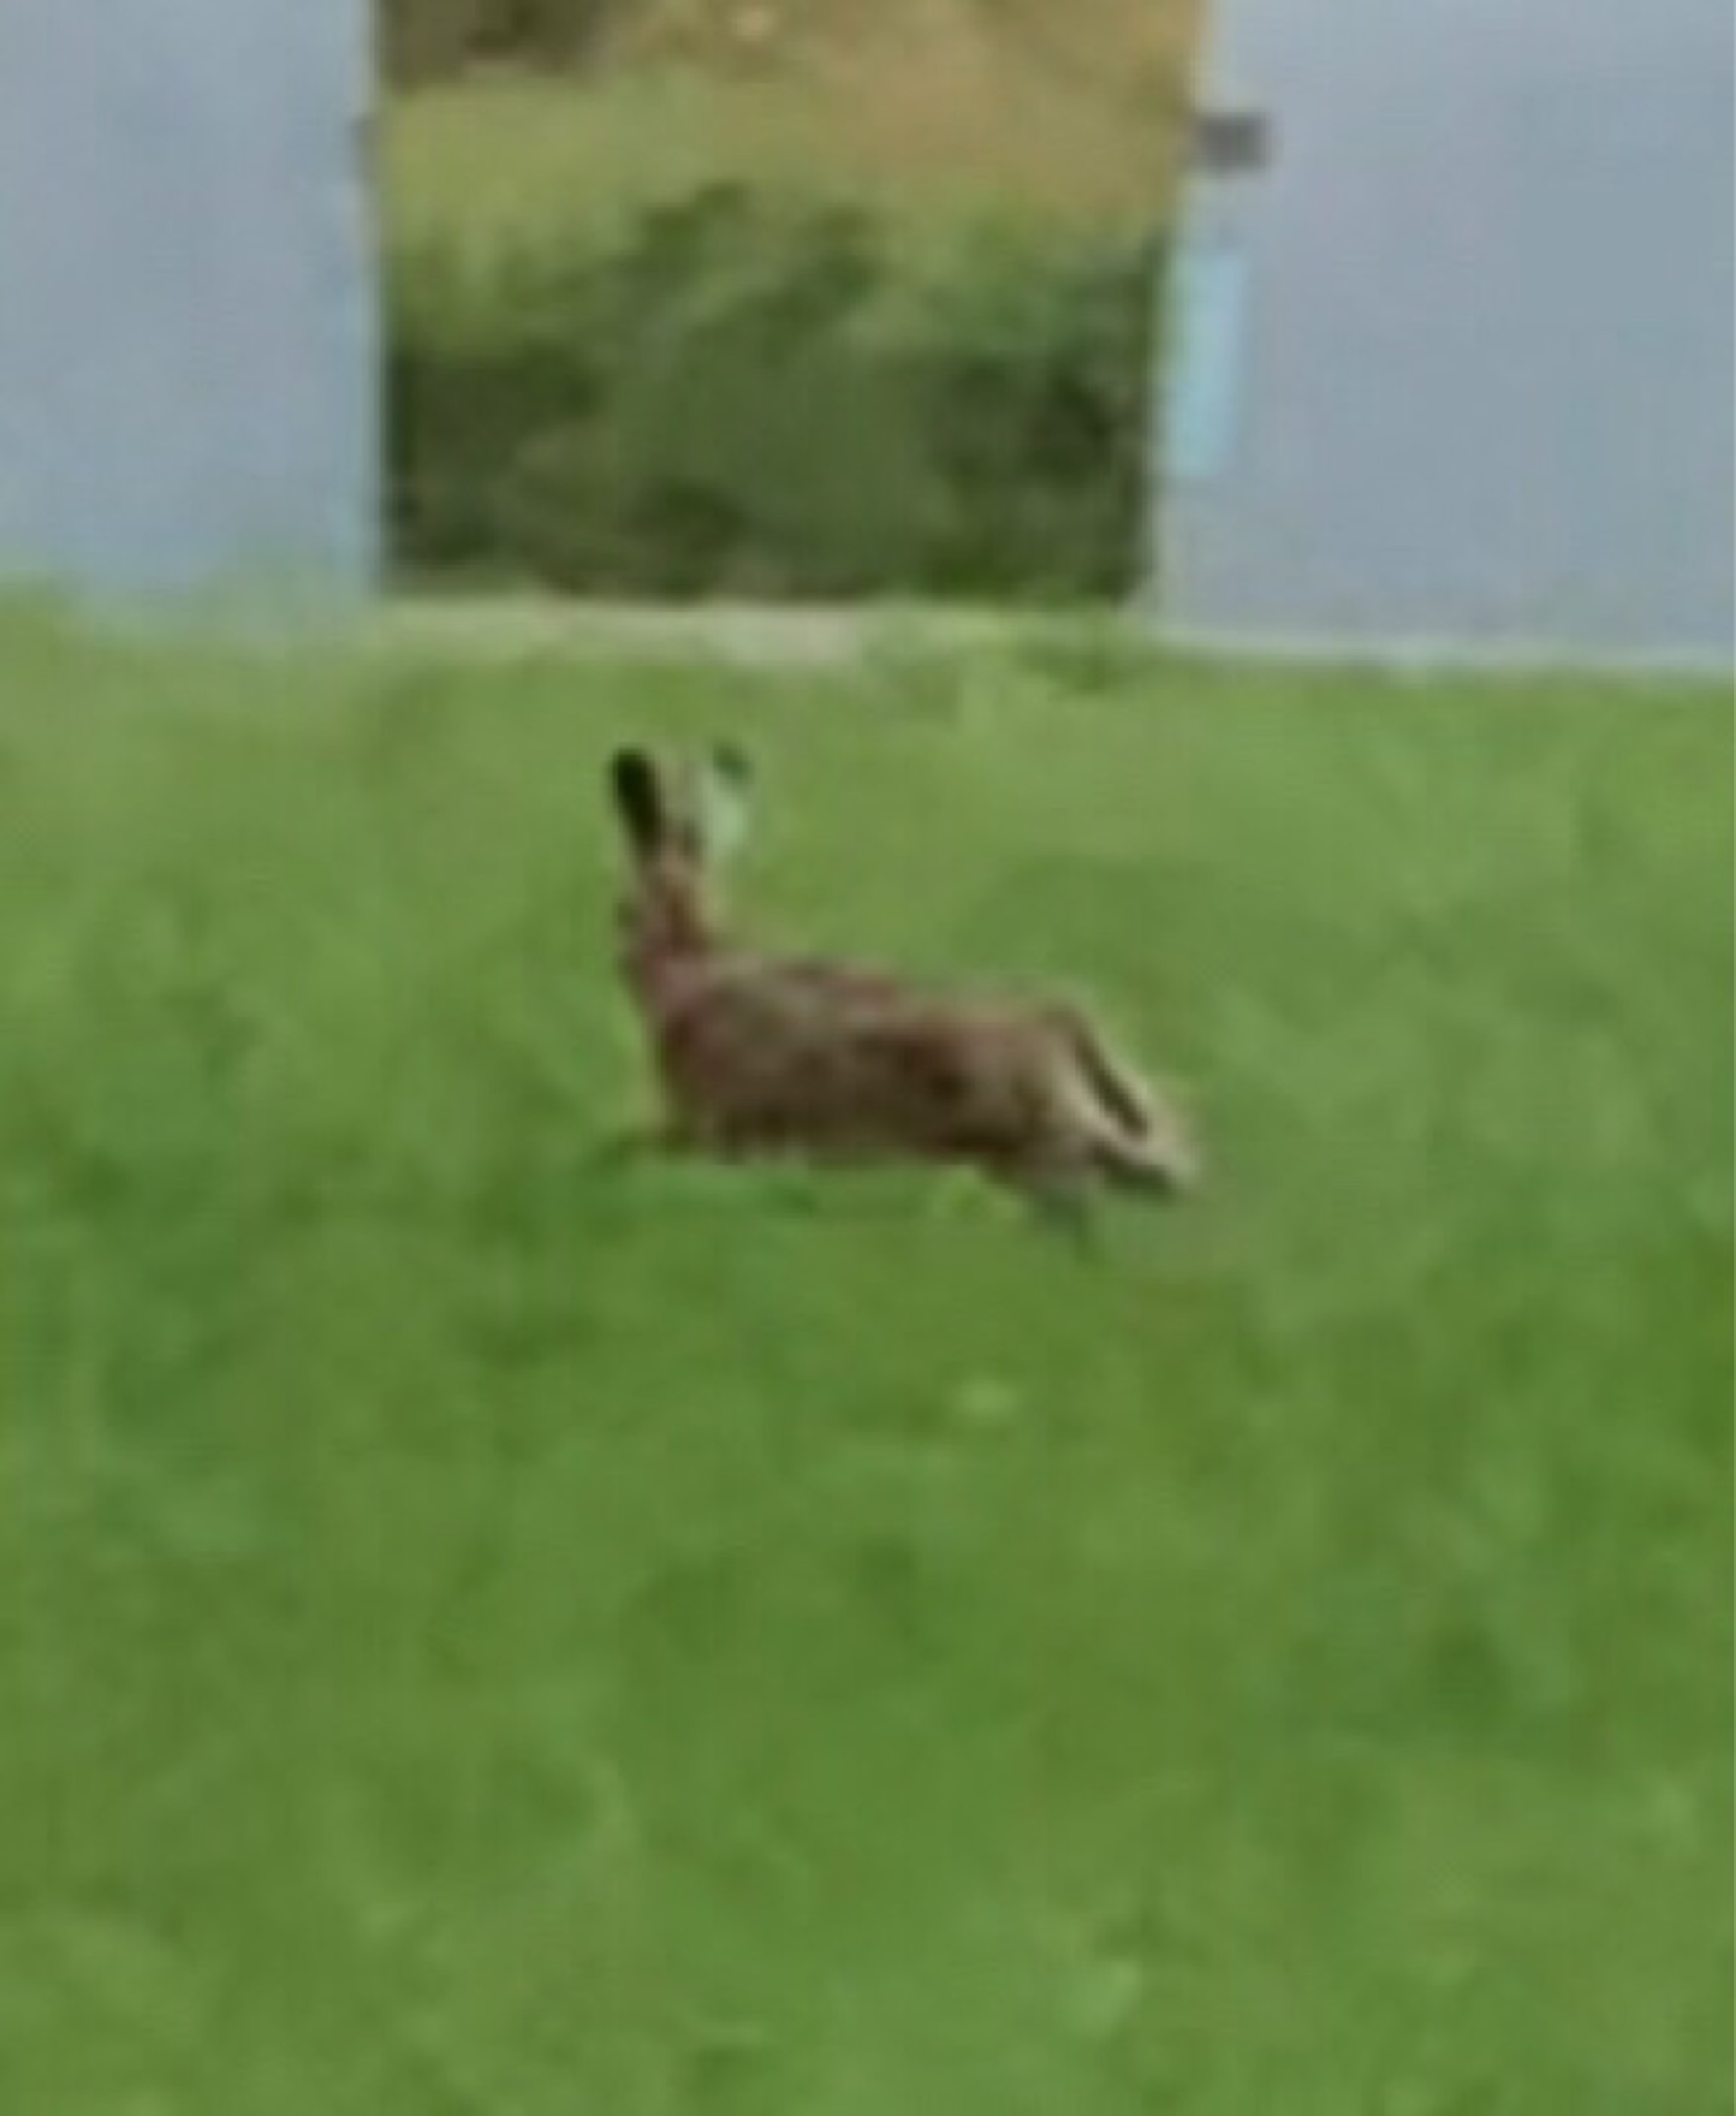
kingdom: Animalia
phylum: Chordata
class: Mammalia
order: Lagomorpha
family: Leporidae
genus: Lepus
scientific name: Lepus europaeus
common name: Hare
